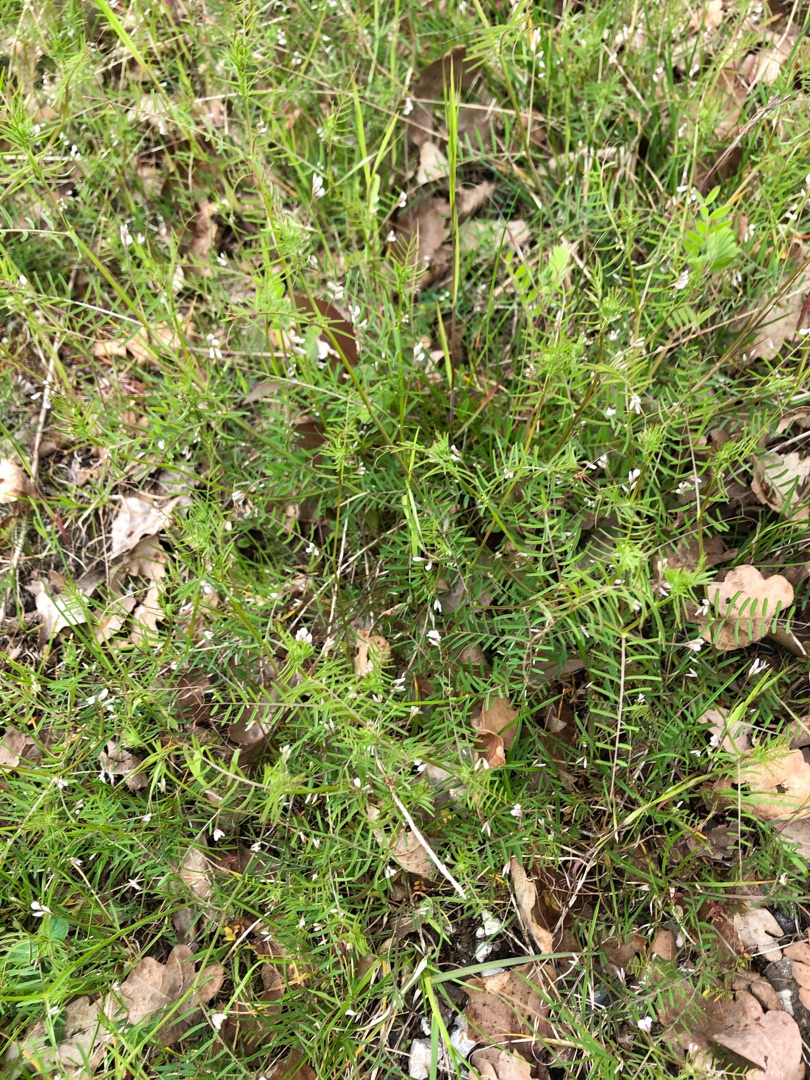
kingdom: Plantae
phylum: Tracheophyta
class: Magnoliopsida
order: Fabales
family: Fabaceae
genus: Vicia
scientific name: Vicia hirsuta
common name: Tofrøet vikke
